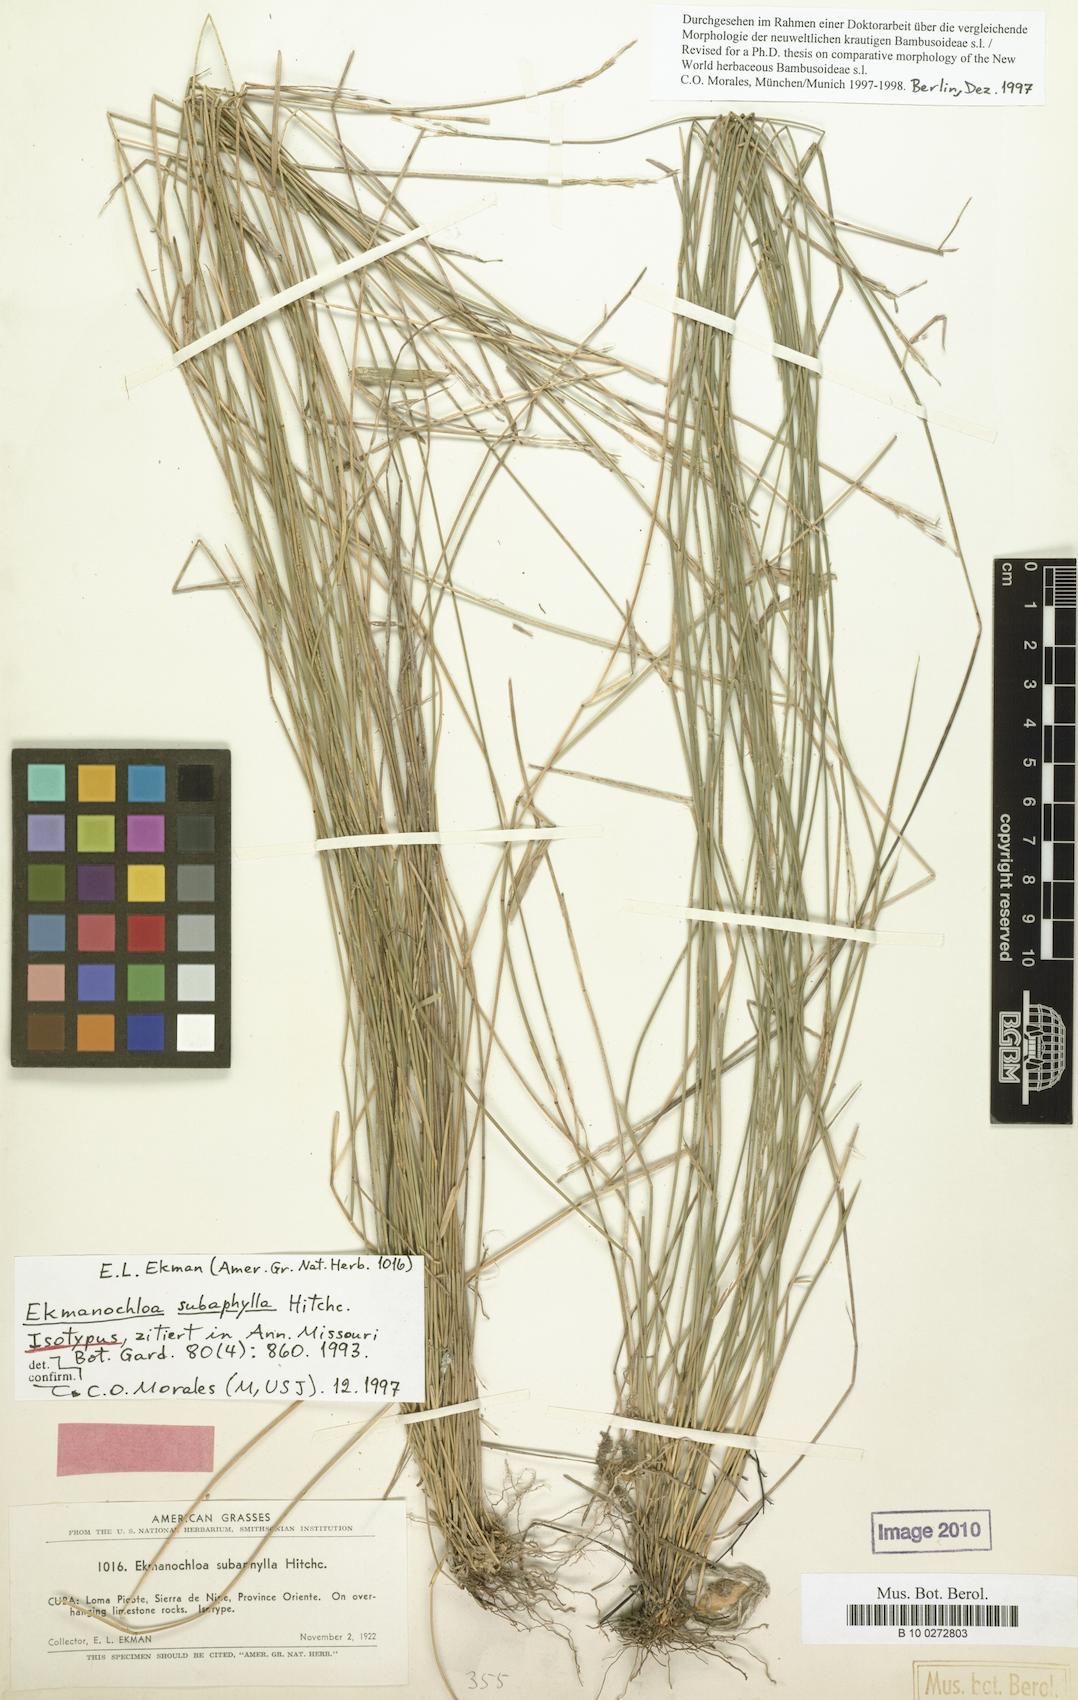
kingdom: Plantae
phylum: Tracheophyta
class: Liliopsida
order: Poales
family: Poaceae
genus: Ekmanochloa
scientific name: Ekmanochloa subaphylla
